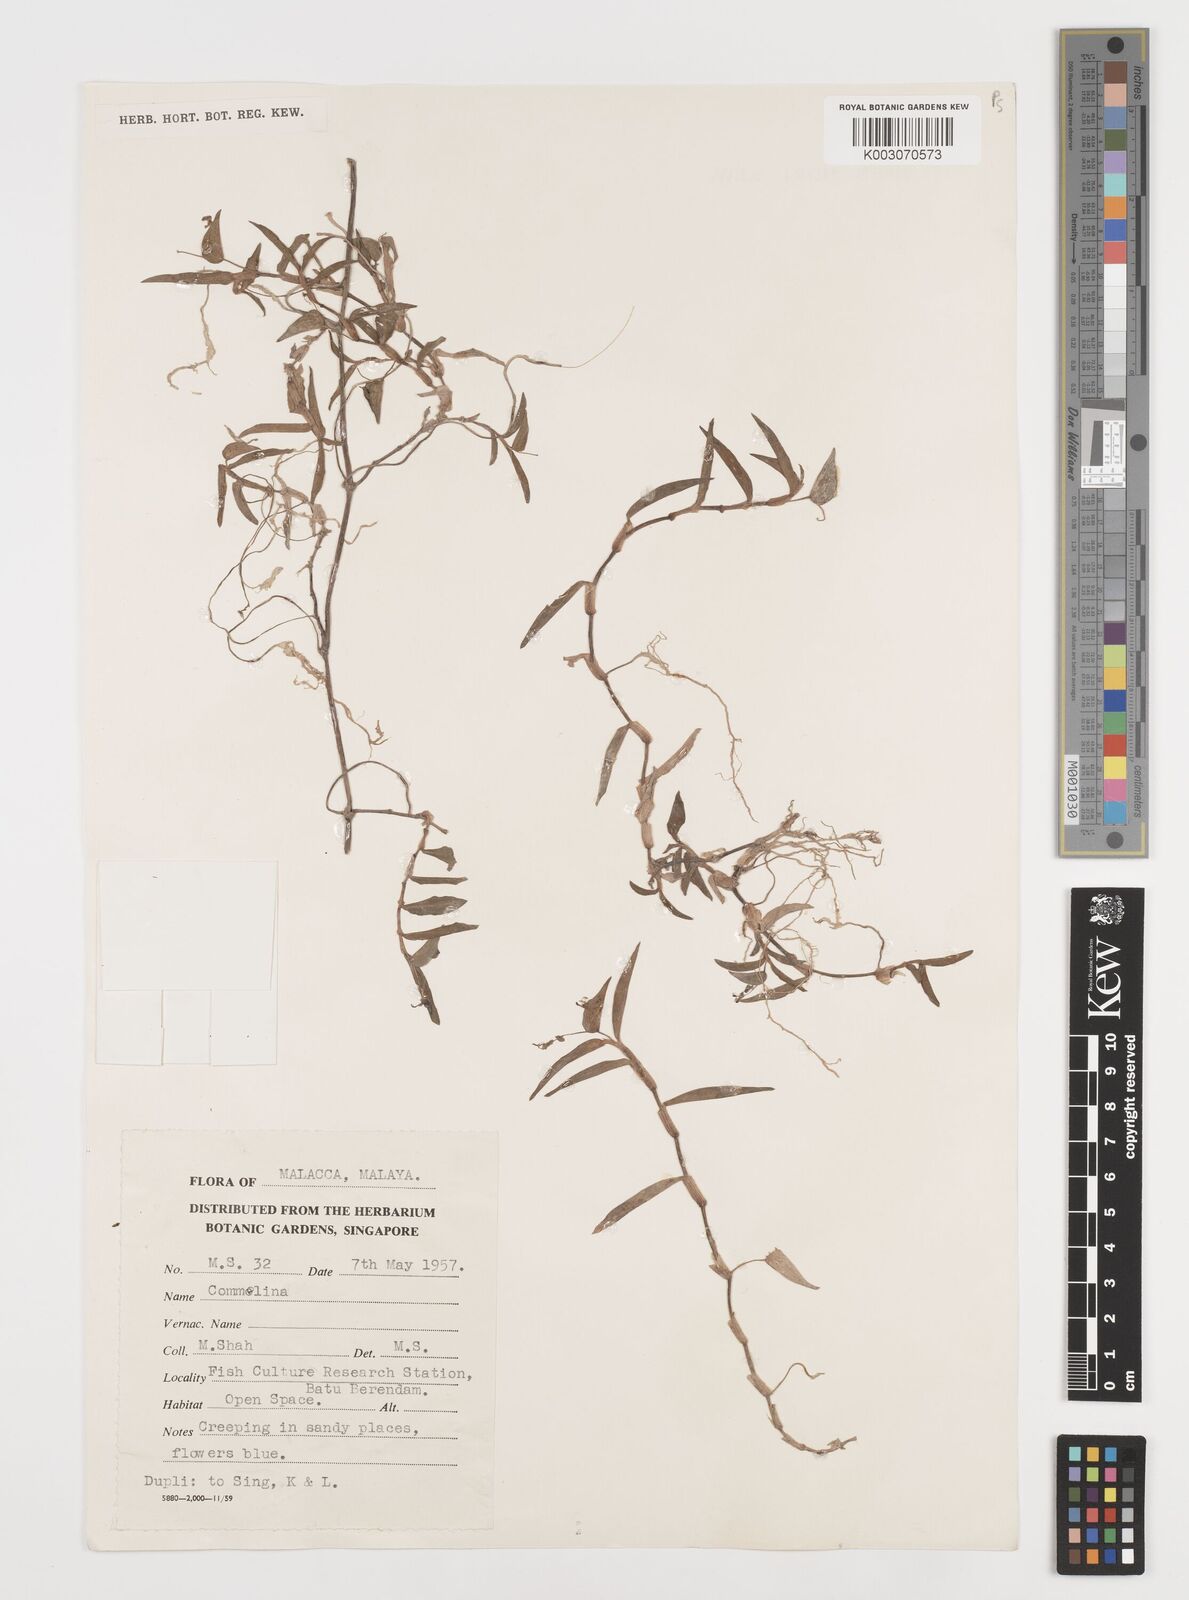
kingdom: Plantae
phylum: Tracheophyta
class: Liliopsida
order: Commelinales
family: Commelinaceae
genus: Commelina
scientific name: Commelina
